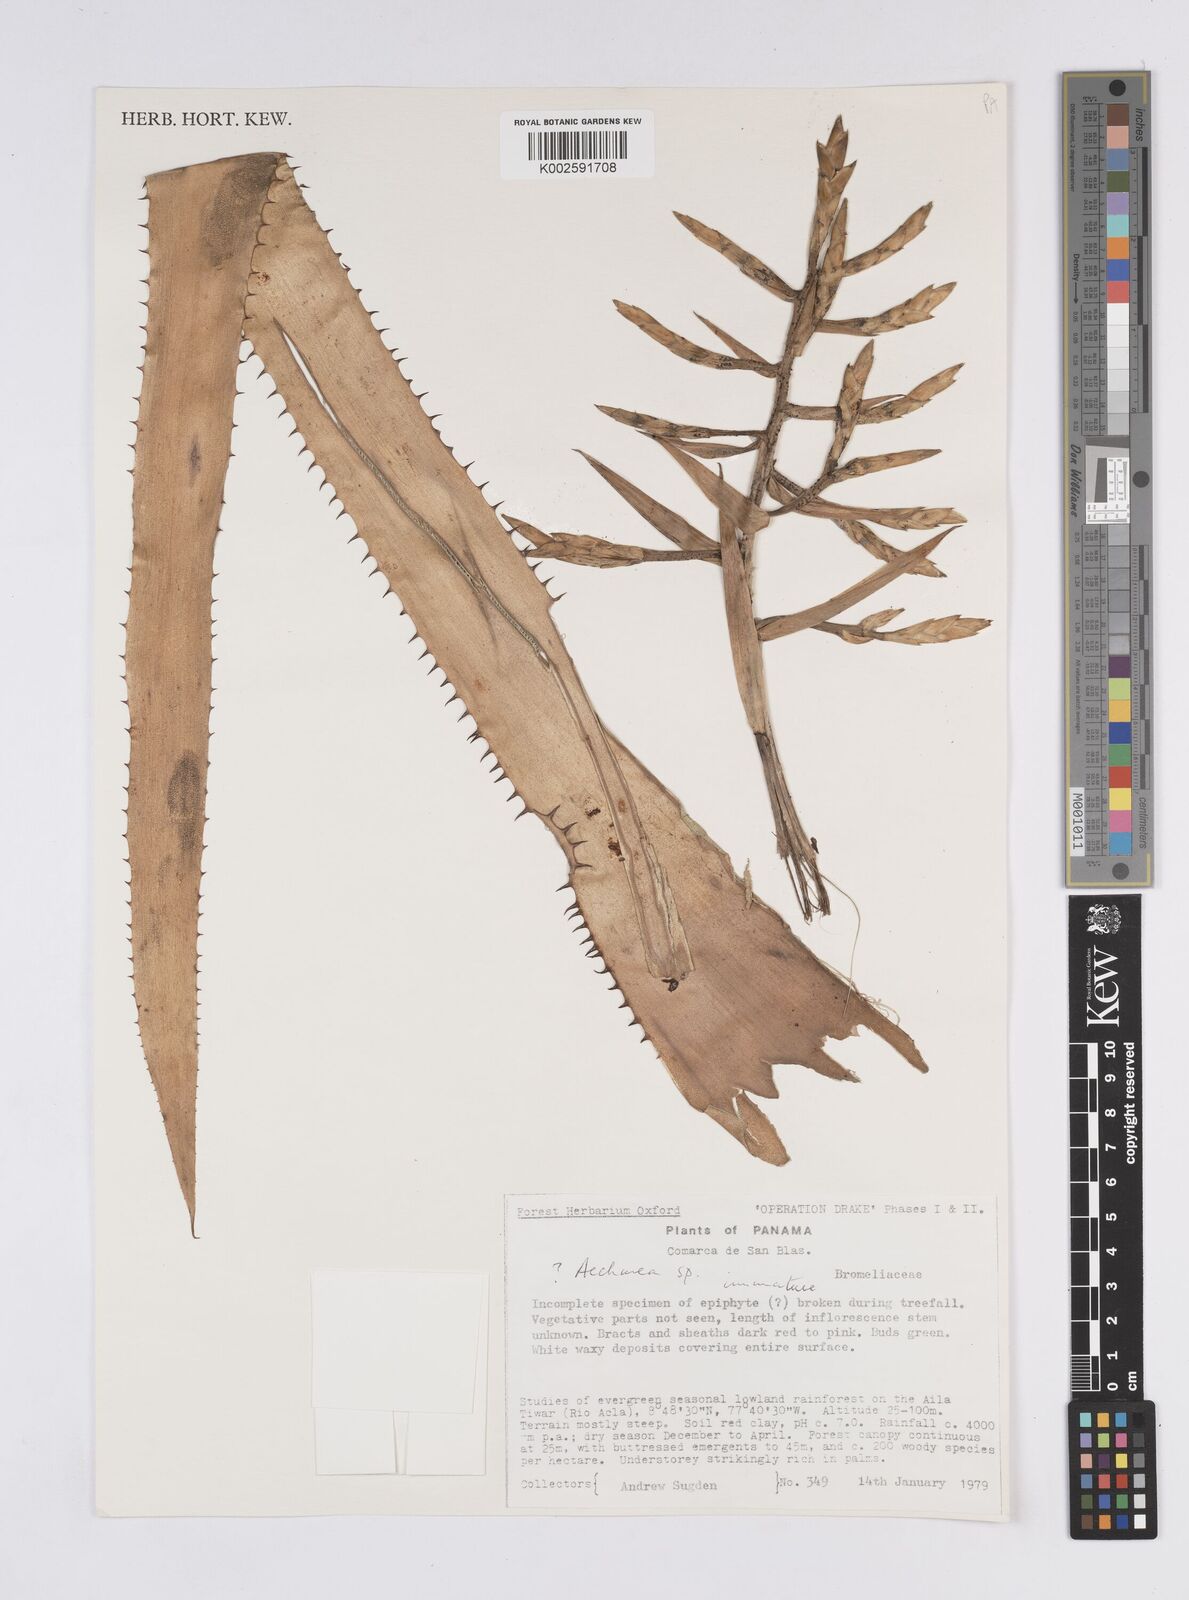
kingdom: Plantae
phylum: Tracheophyta
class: Liliopsida
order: Poales
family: Bromeliaceae
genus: Aechmea
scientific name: Aechmea
